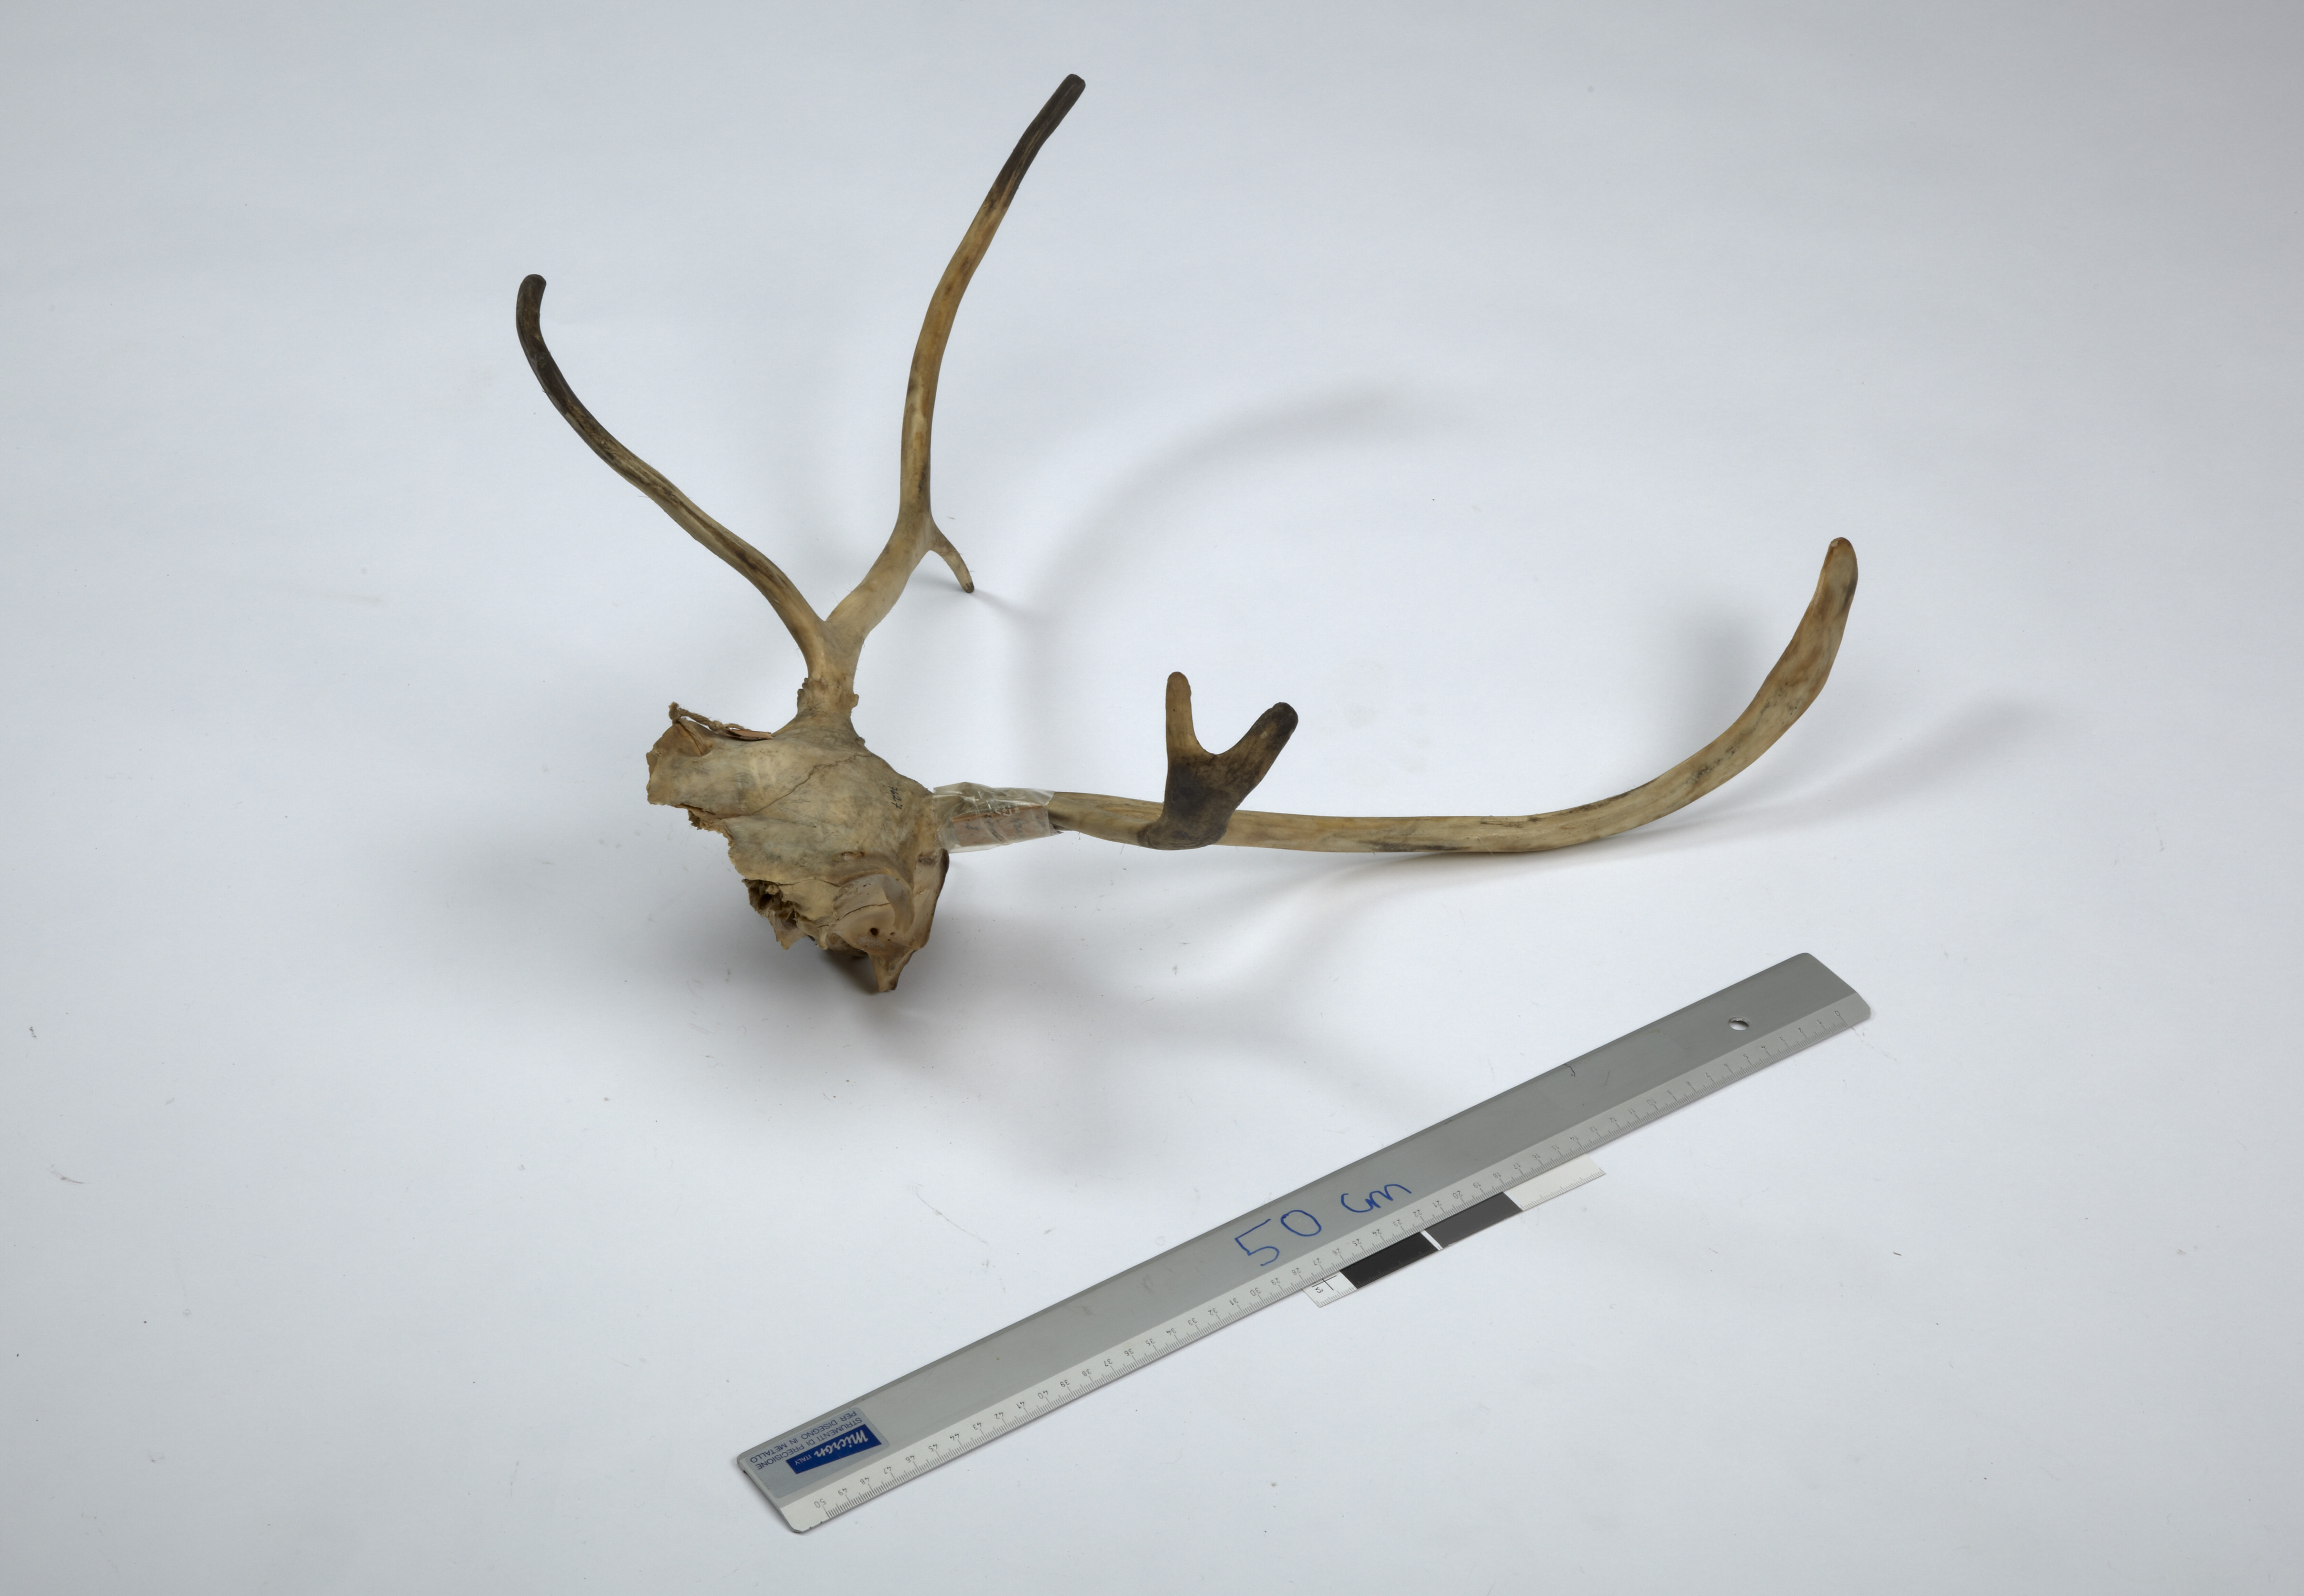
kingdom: Animalia
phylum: Chordata
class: Mammalia
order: Artiodactyla
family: Cervidae
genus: Rangifer
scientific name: Rangifer tarandus
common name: Reindeer
